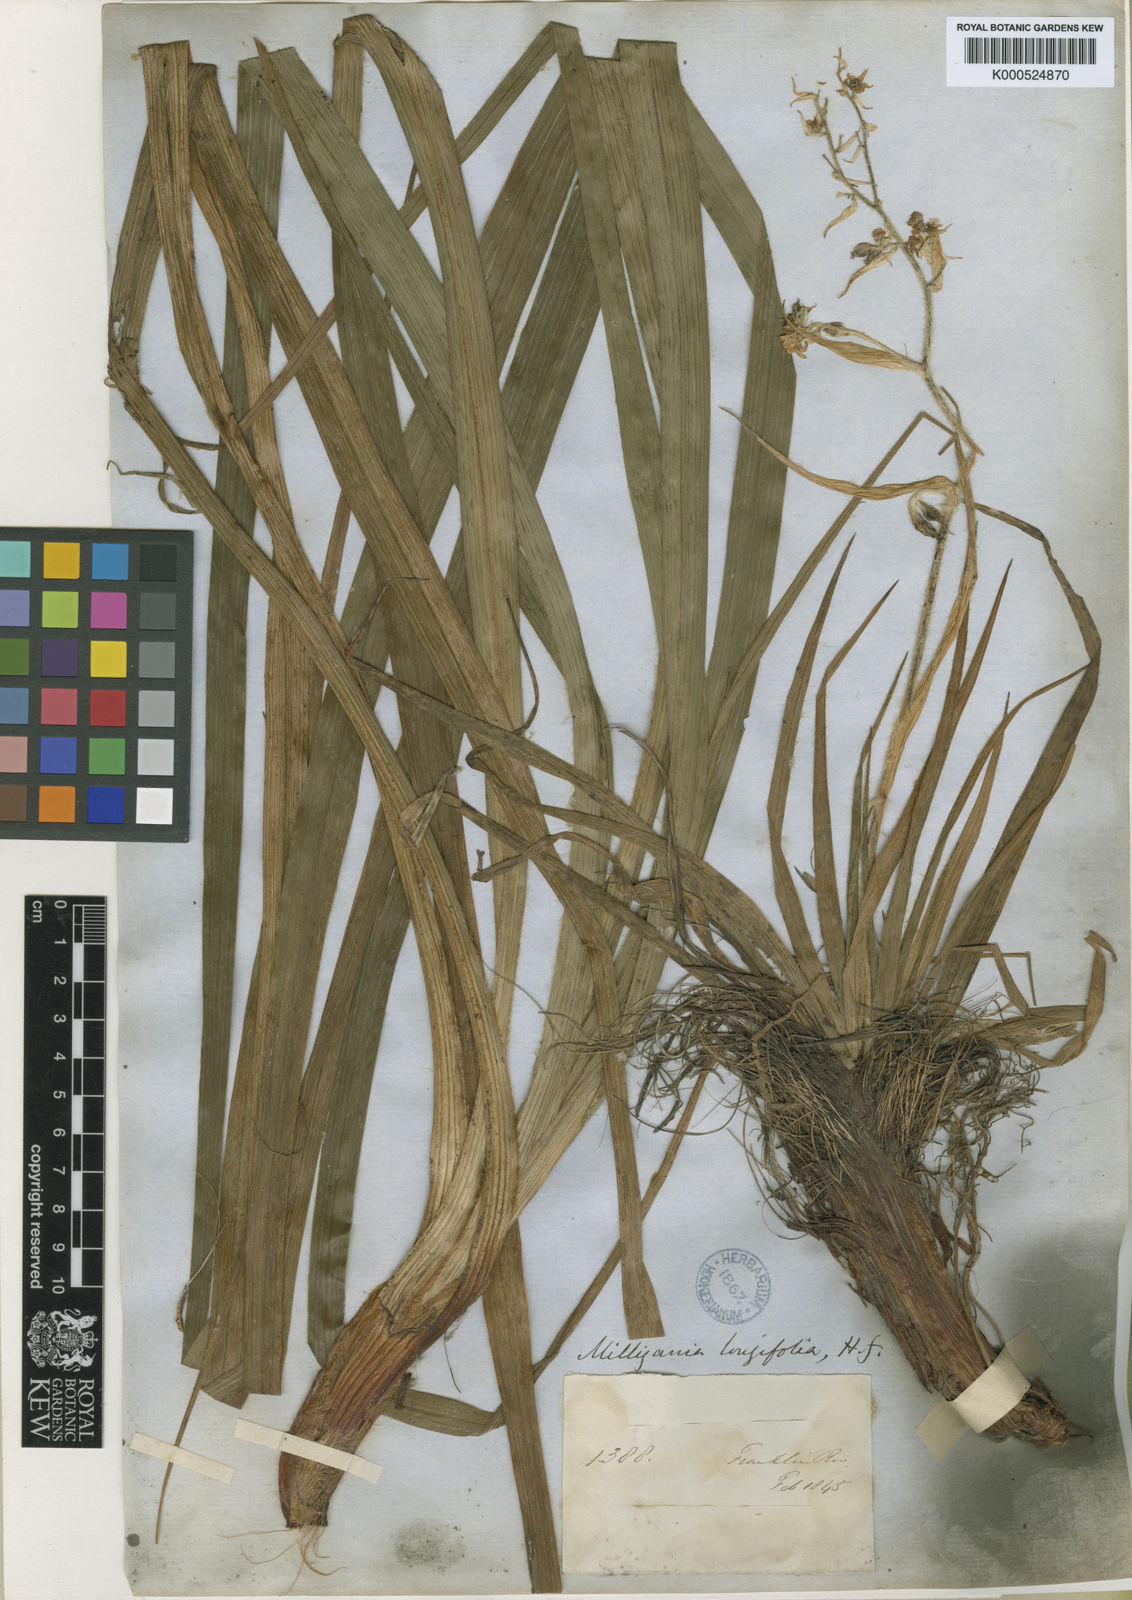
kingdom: Plantae
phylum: Tracheophyta
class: Liliopsida
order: Asparagales
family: Asteliaceae
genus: Milligania
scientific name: Milligania longifolia
